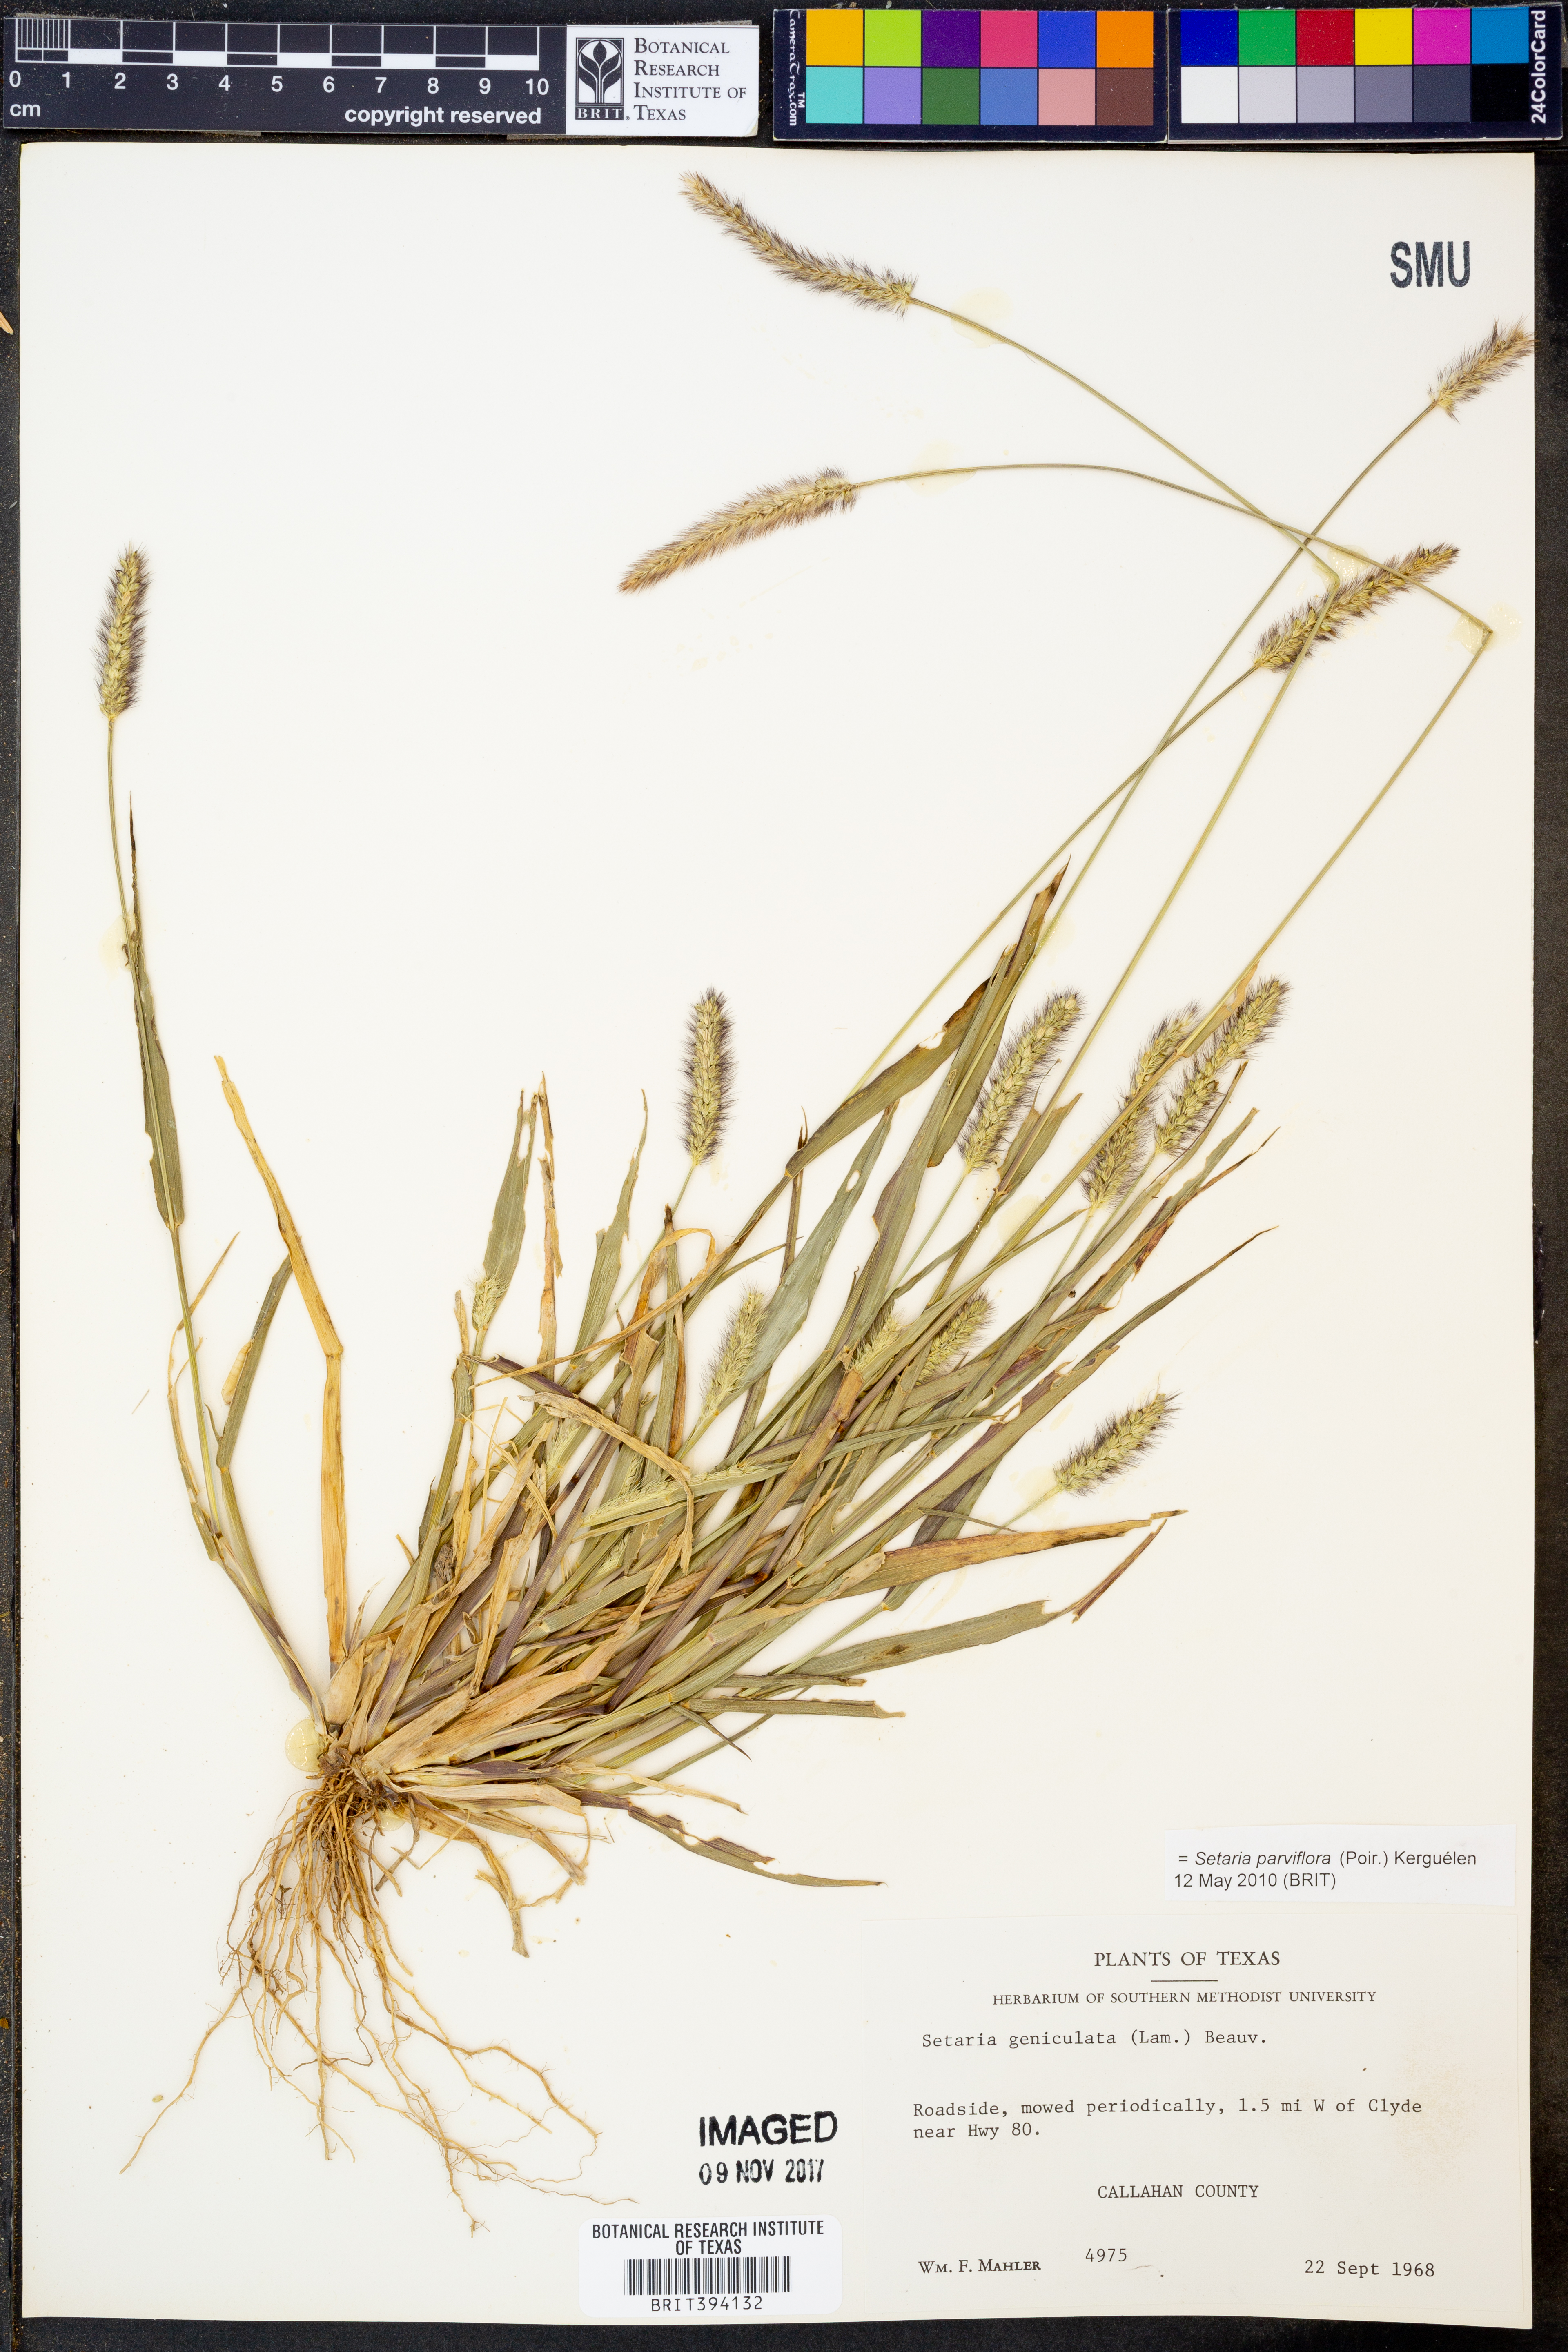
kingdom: Plantae
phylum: Tracheophyta
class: Liliopsida
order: Poales
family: Poaceae
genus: Setaria
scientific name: Setaria parviflora
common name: Knotroot bristle-grass
